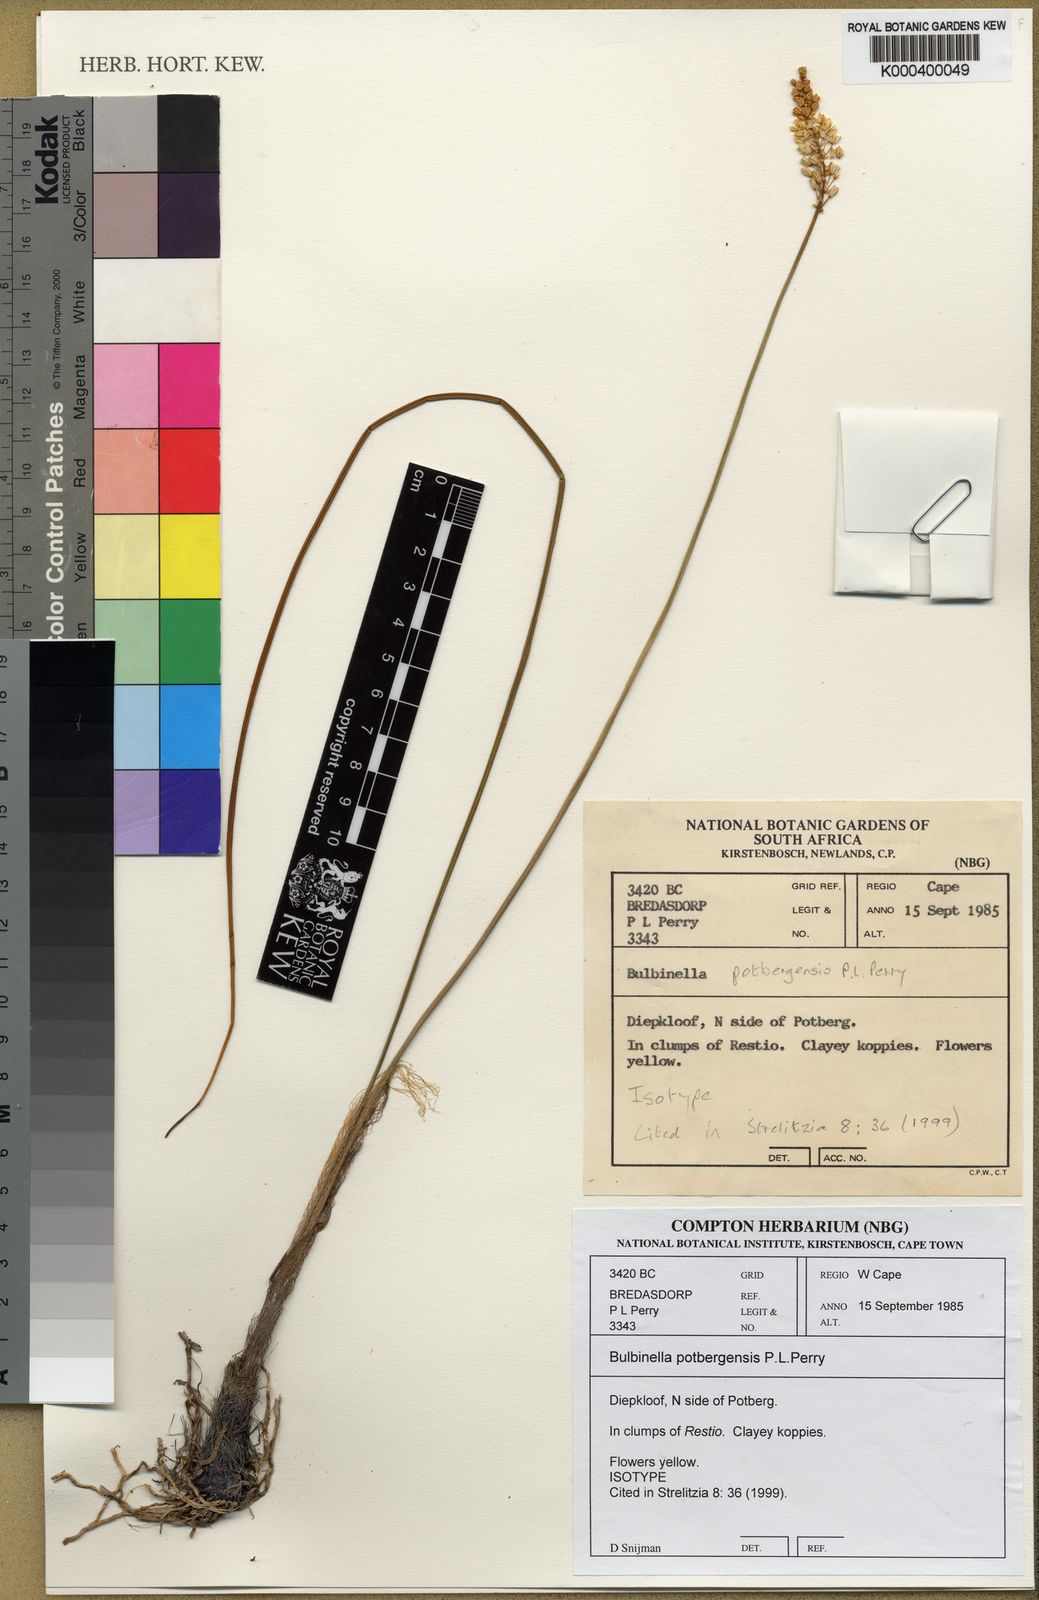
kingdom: Plantae
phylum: Tracheophyta
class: Liliopsida
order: Asparagales
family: Asphodelaceae
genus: Bulbinella
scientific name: Bulbinella potbergensis
